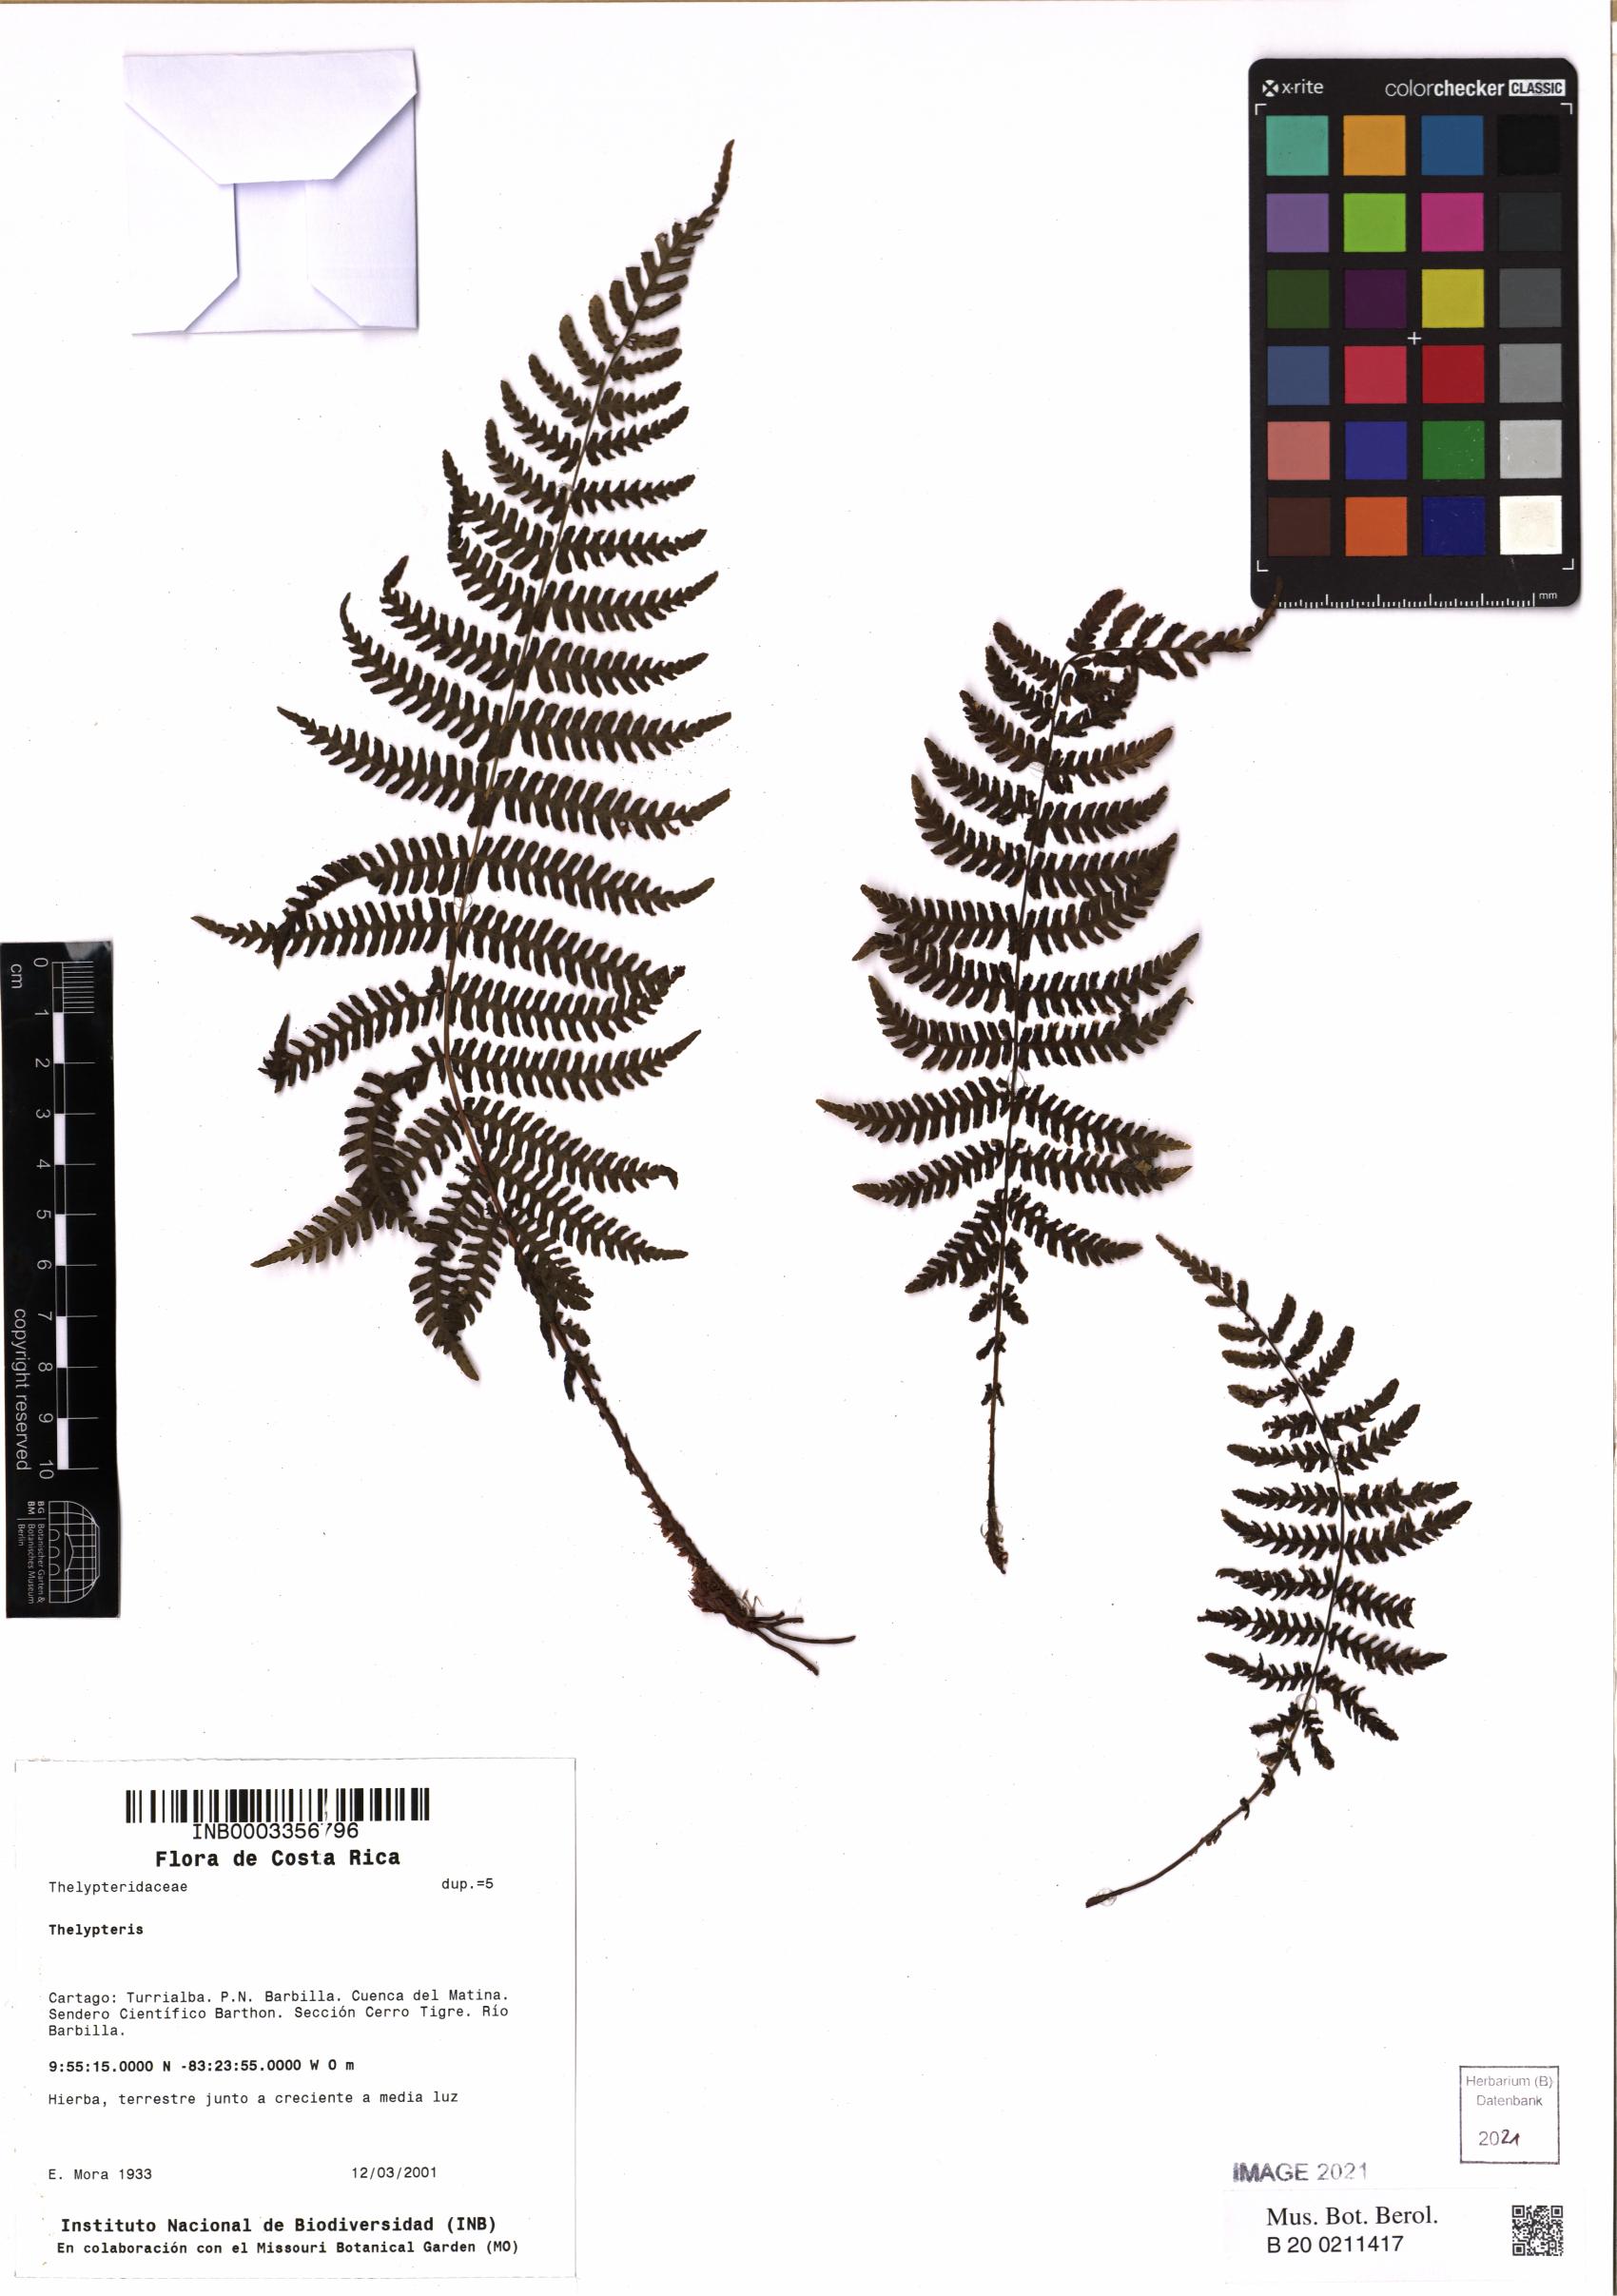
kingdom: Plantae
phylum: Tracheophyta
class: Polypodiopsida
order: Polypodiales
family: Thelypteridaceae
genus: Thelypteris
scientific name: Thelypteris
